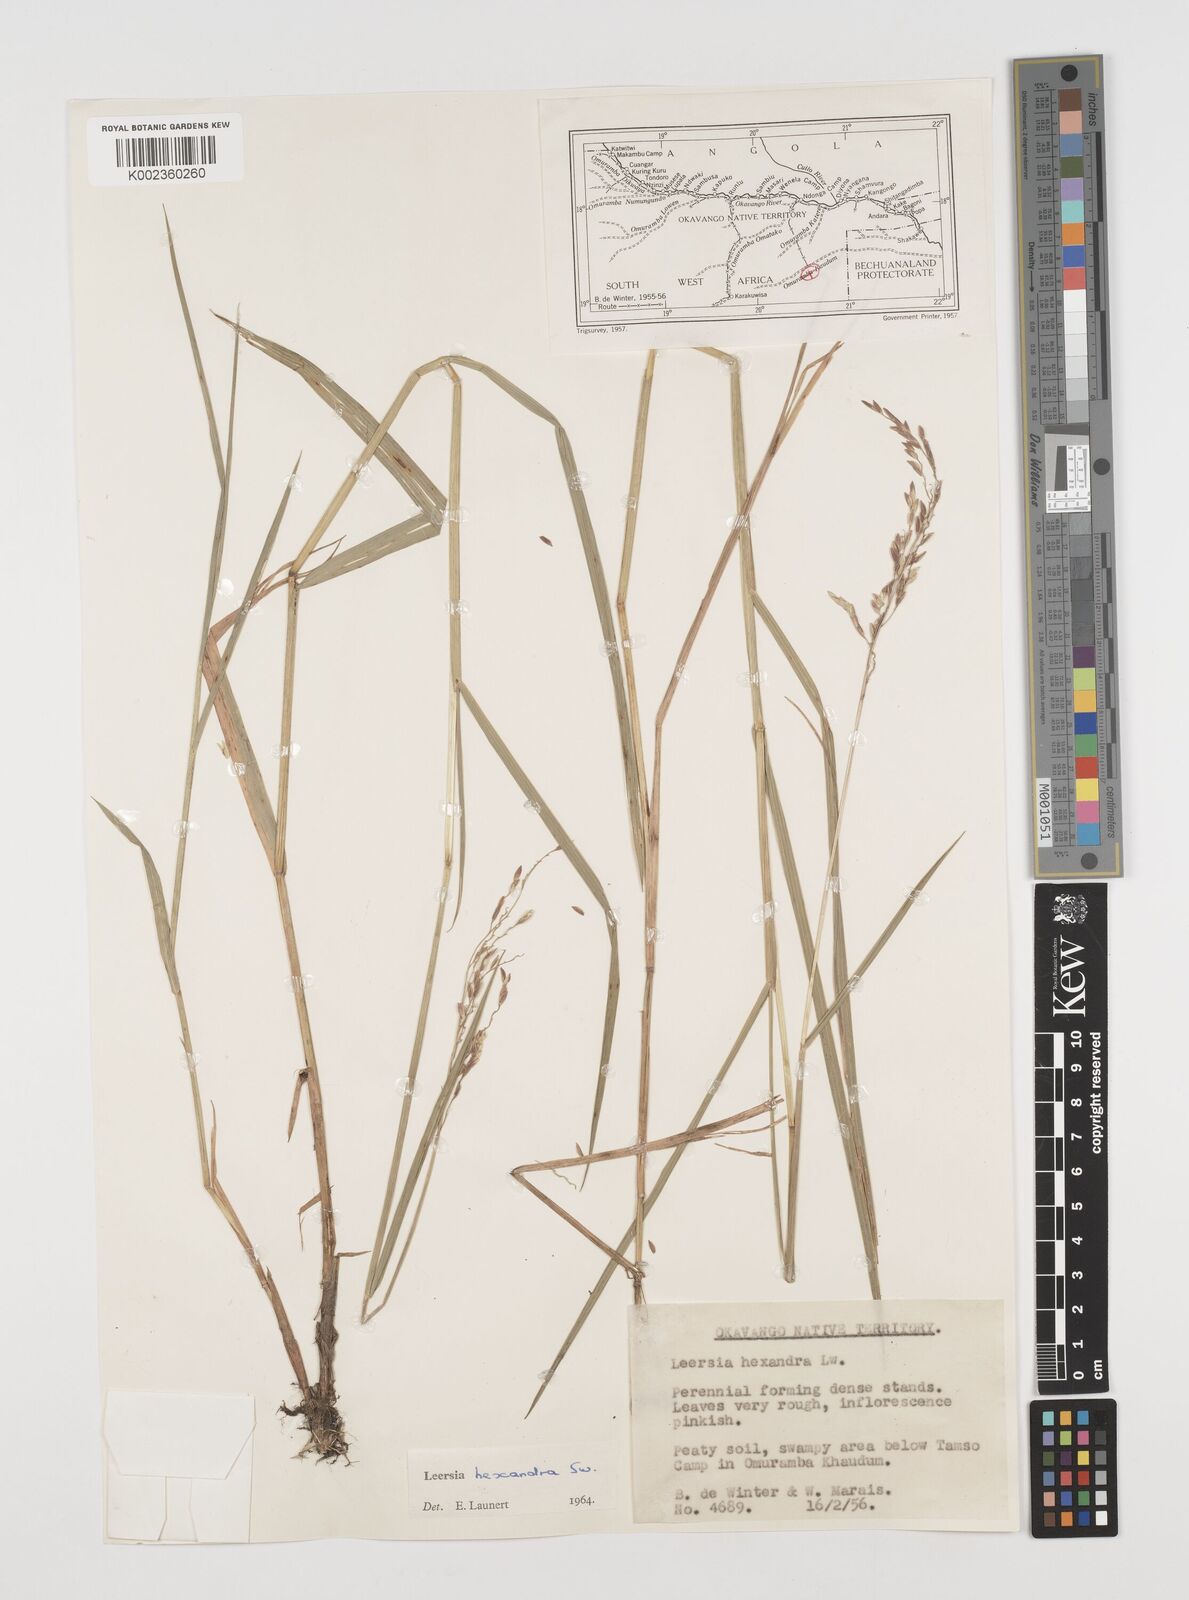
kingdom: Plantae
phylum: Tracheophyta
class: Liliopsida
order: Poales
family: Poaceae
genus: Leersia
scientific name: Leersia hexandra
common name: Southern cut grass
